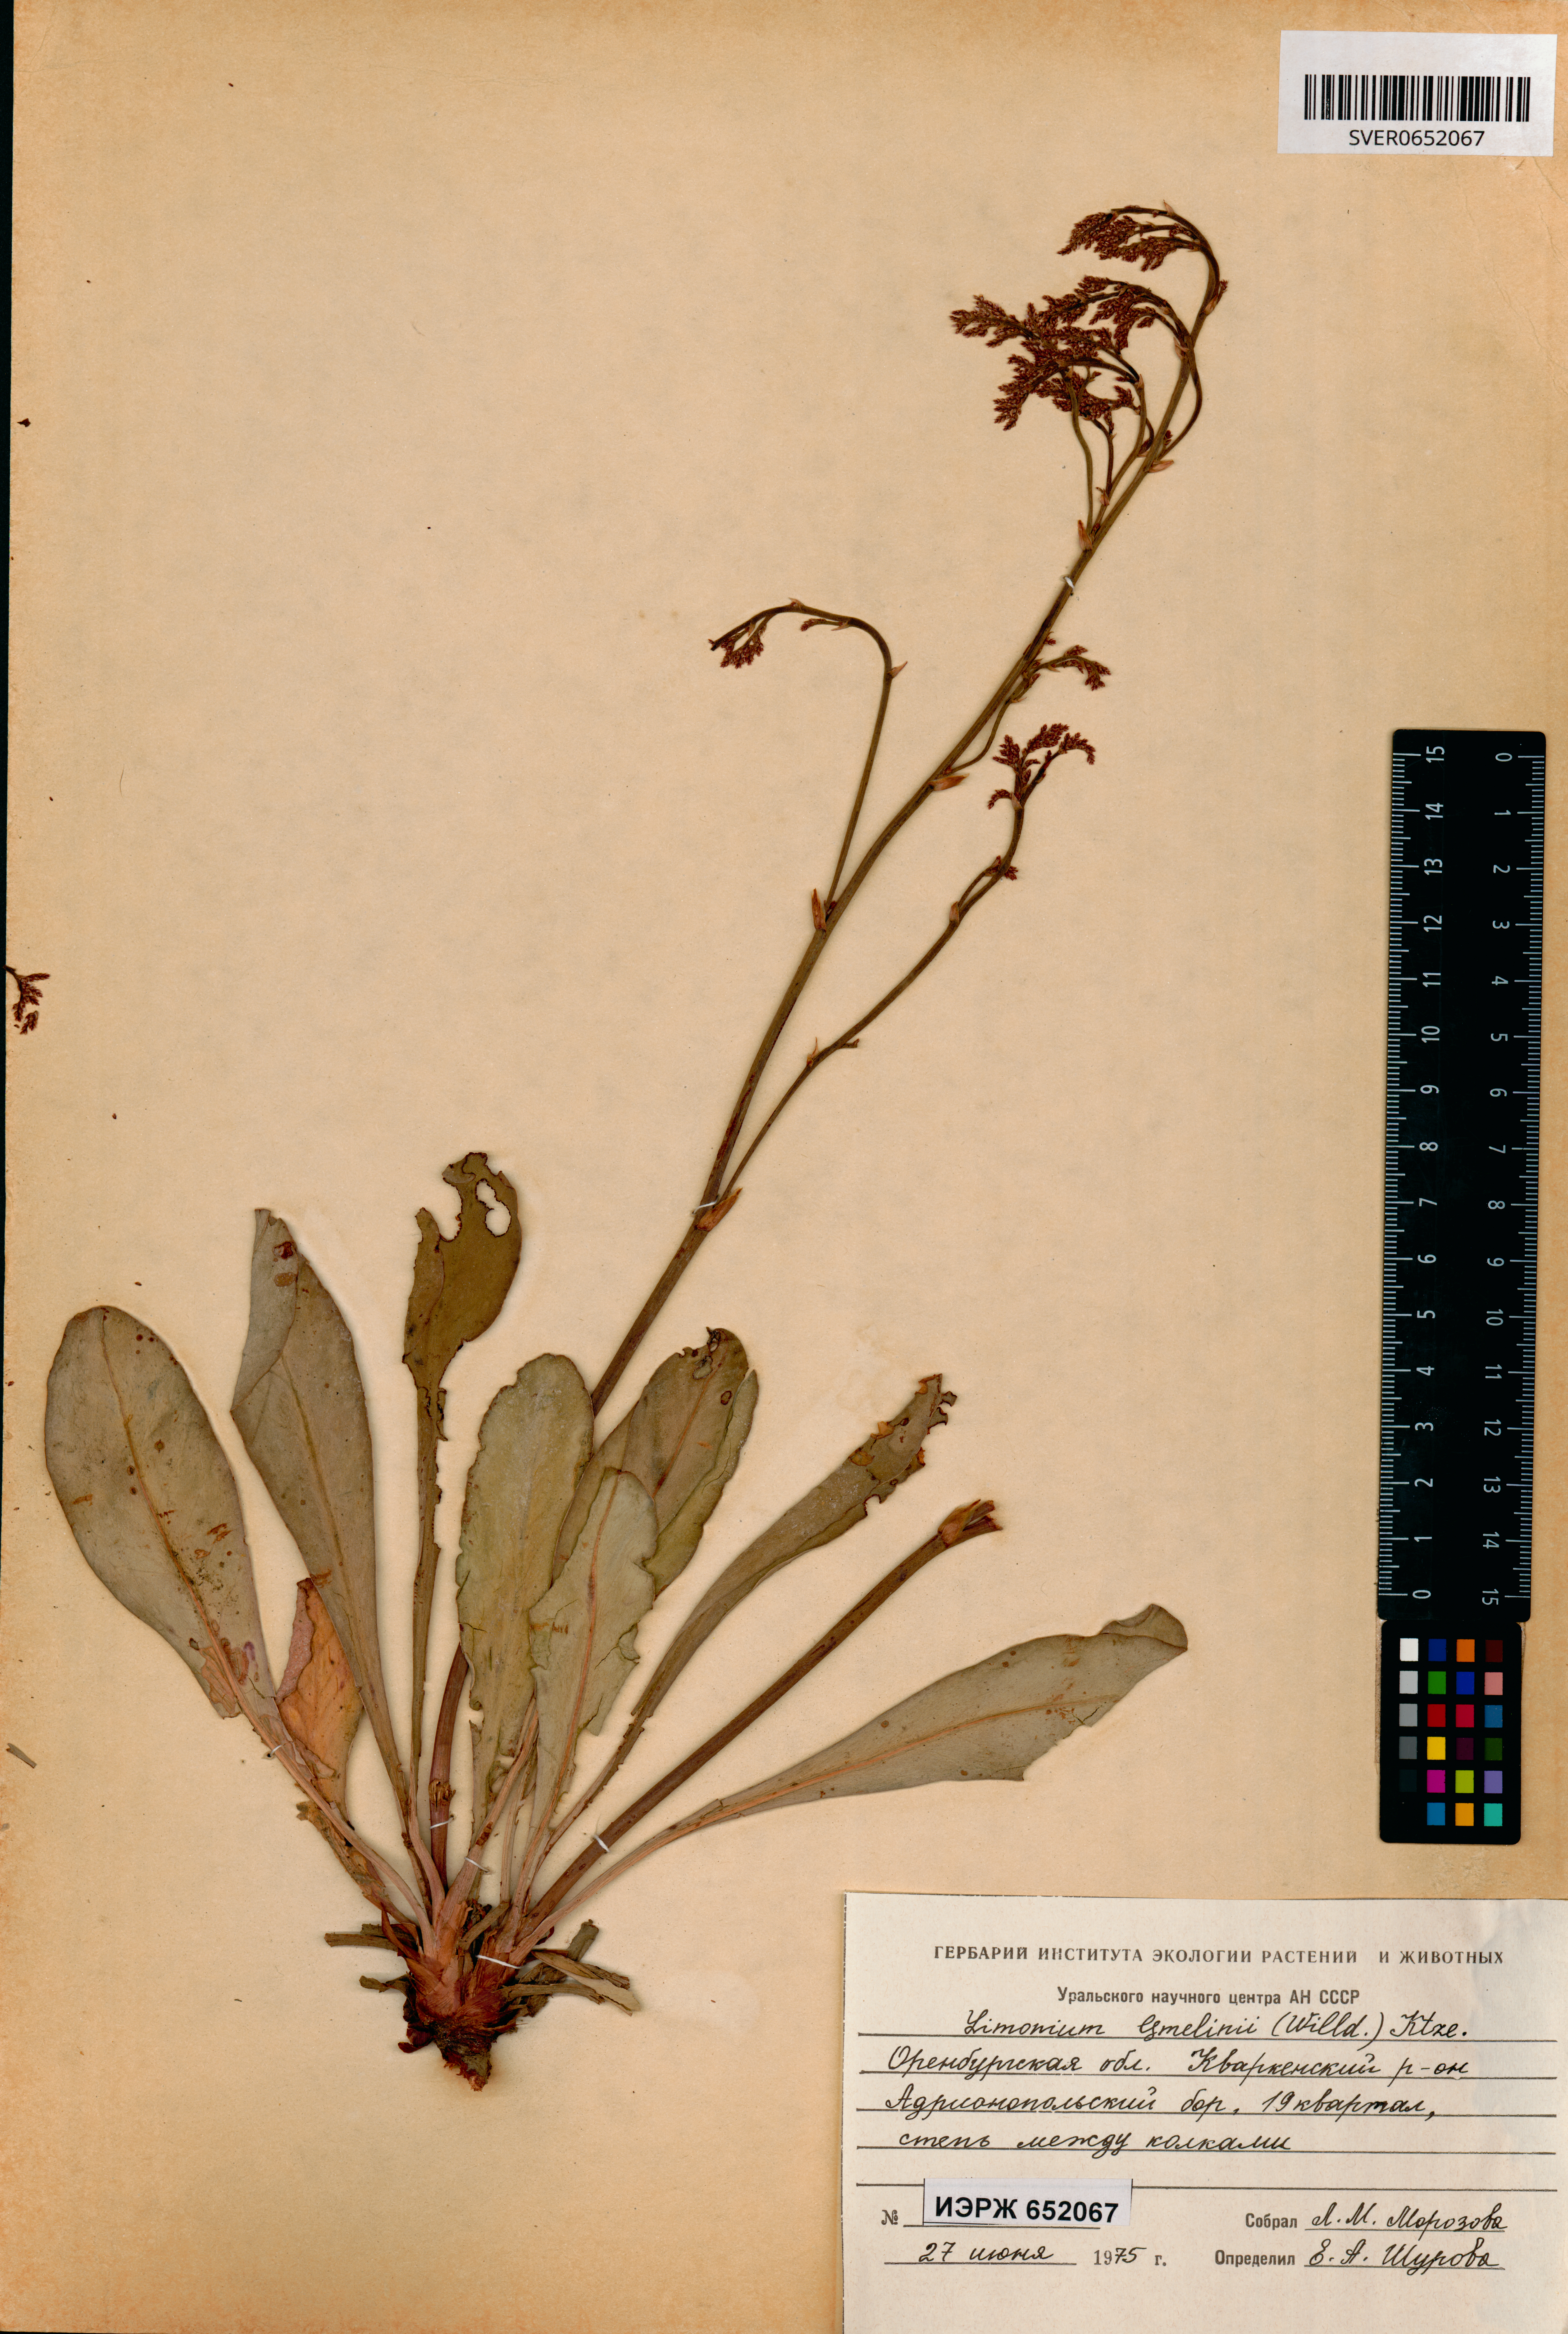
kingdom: Plantae
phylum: Tracheophyta
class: Magnoliopsida
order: Caryophyllales
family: Plumbaginaceae
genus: Limonium
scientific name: Limonium gmelini
